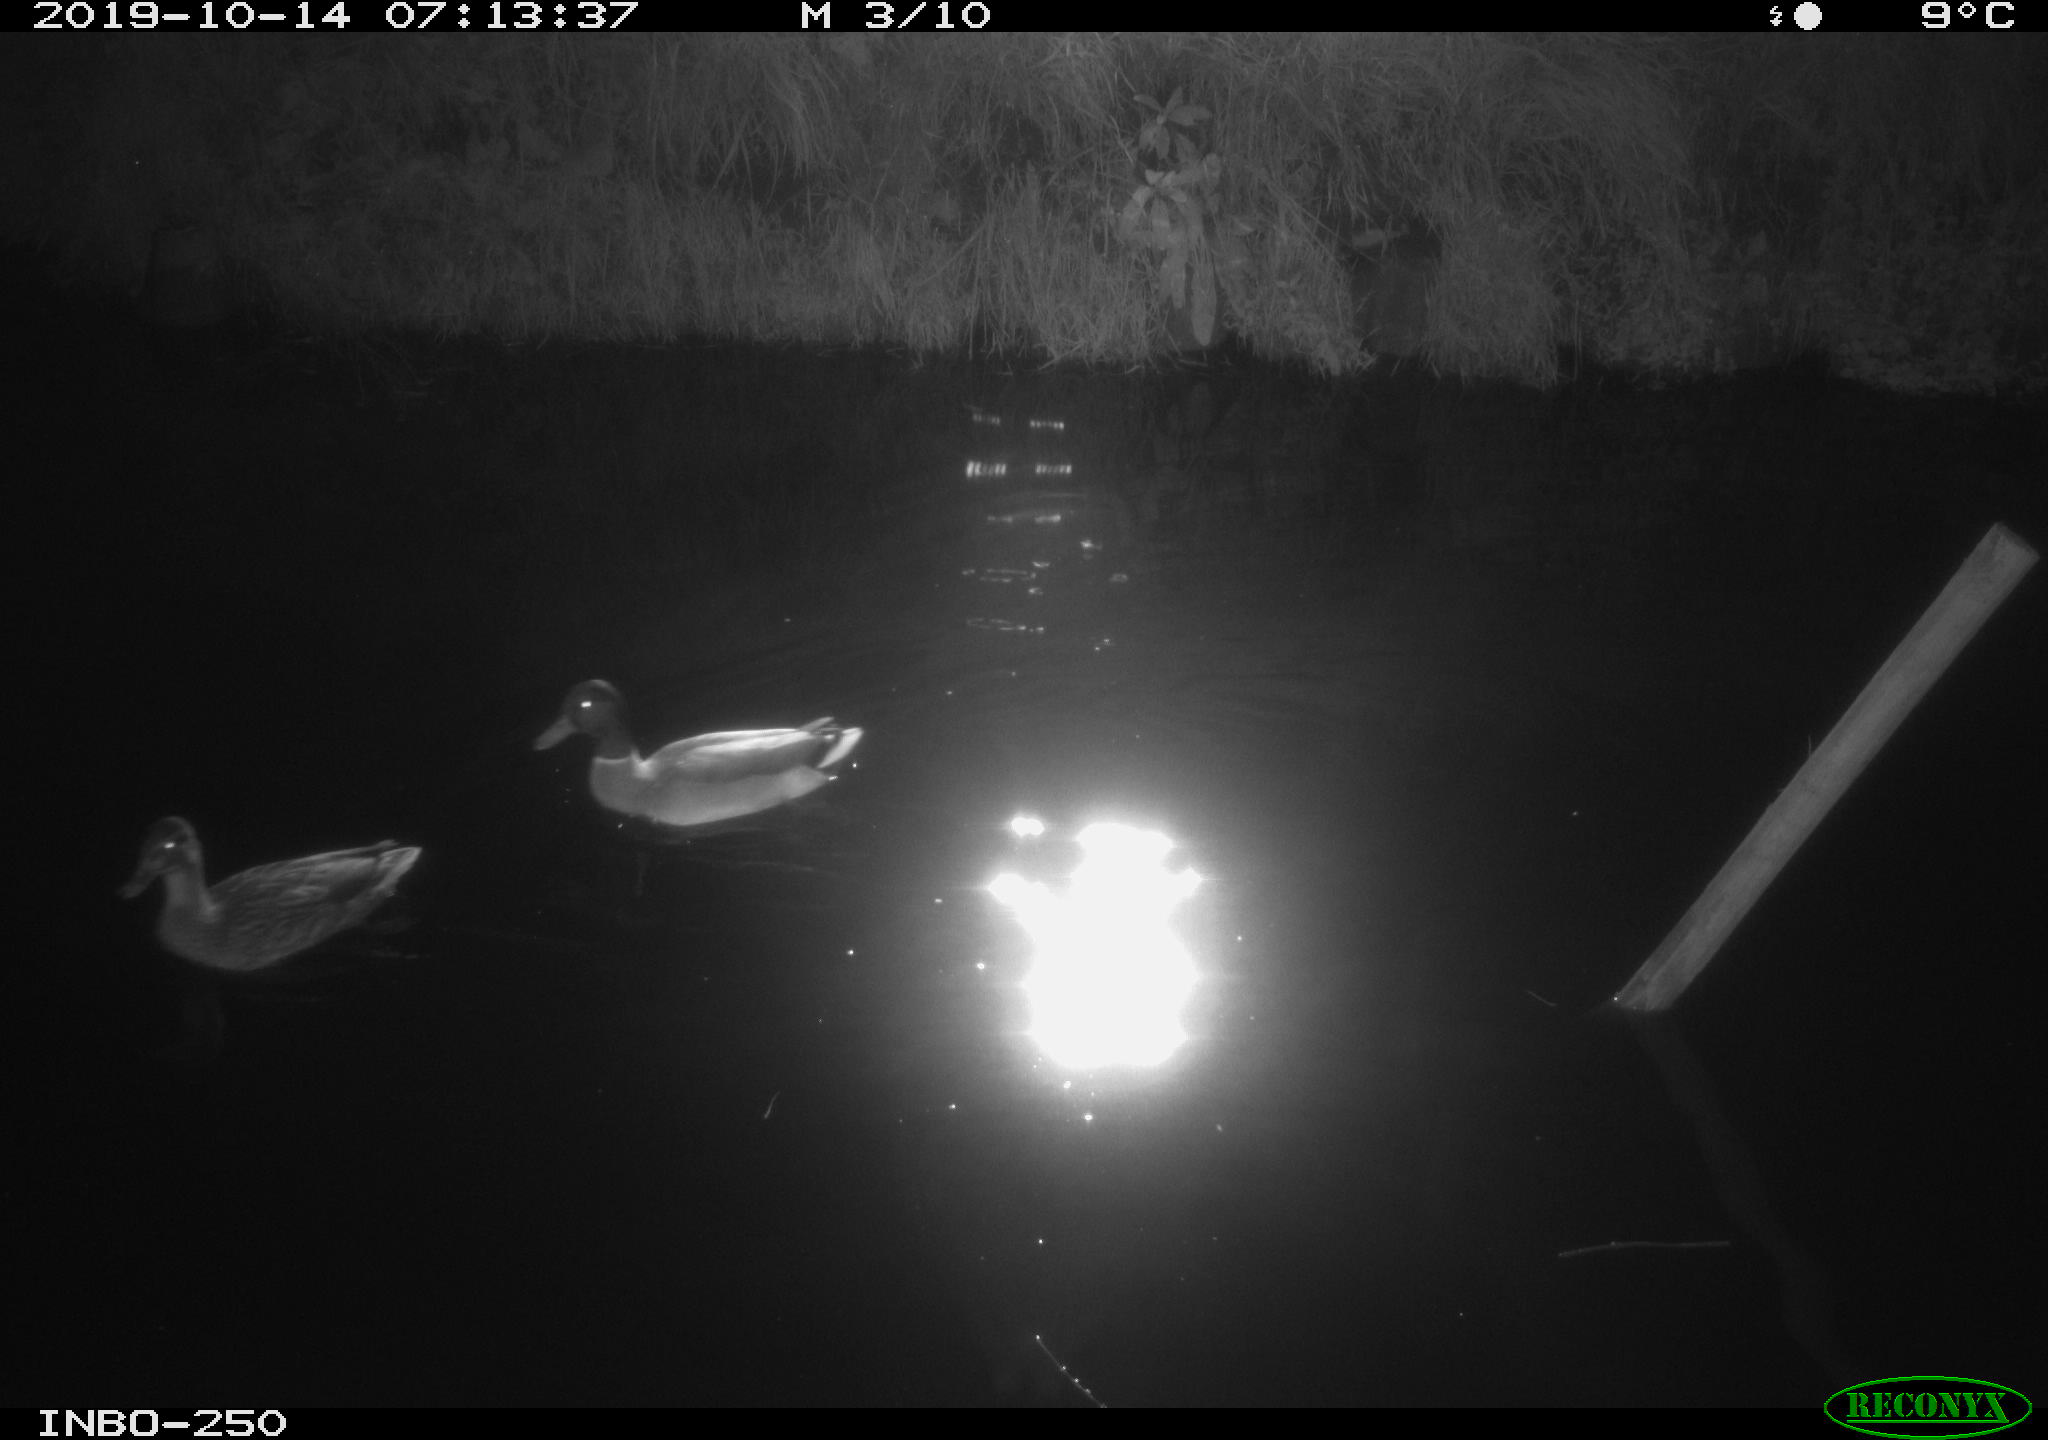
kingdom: Animalia
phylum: Chordata
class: Aves
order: Anseriformes
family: Anatidae
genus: Anas
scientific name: Anas platyrhynchos
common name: Mallard
